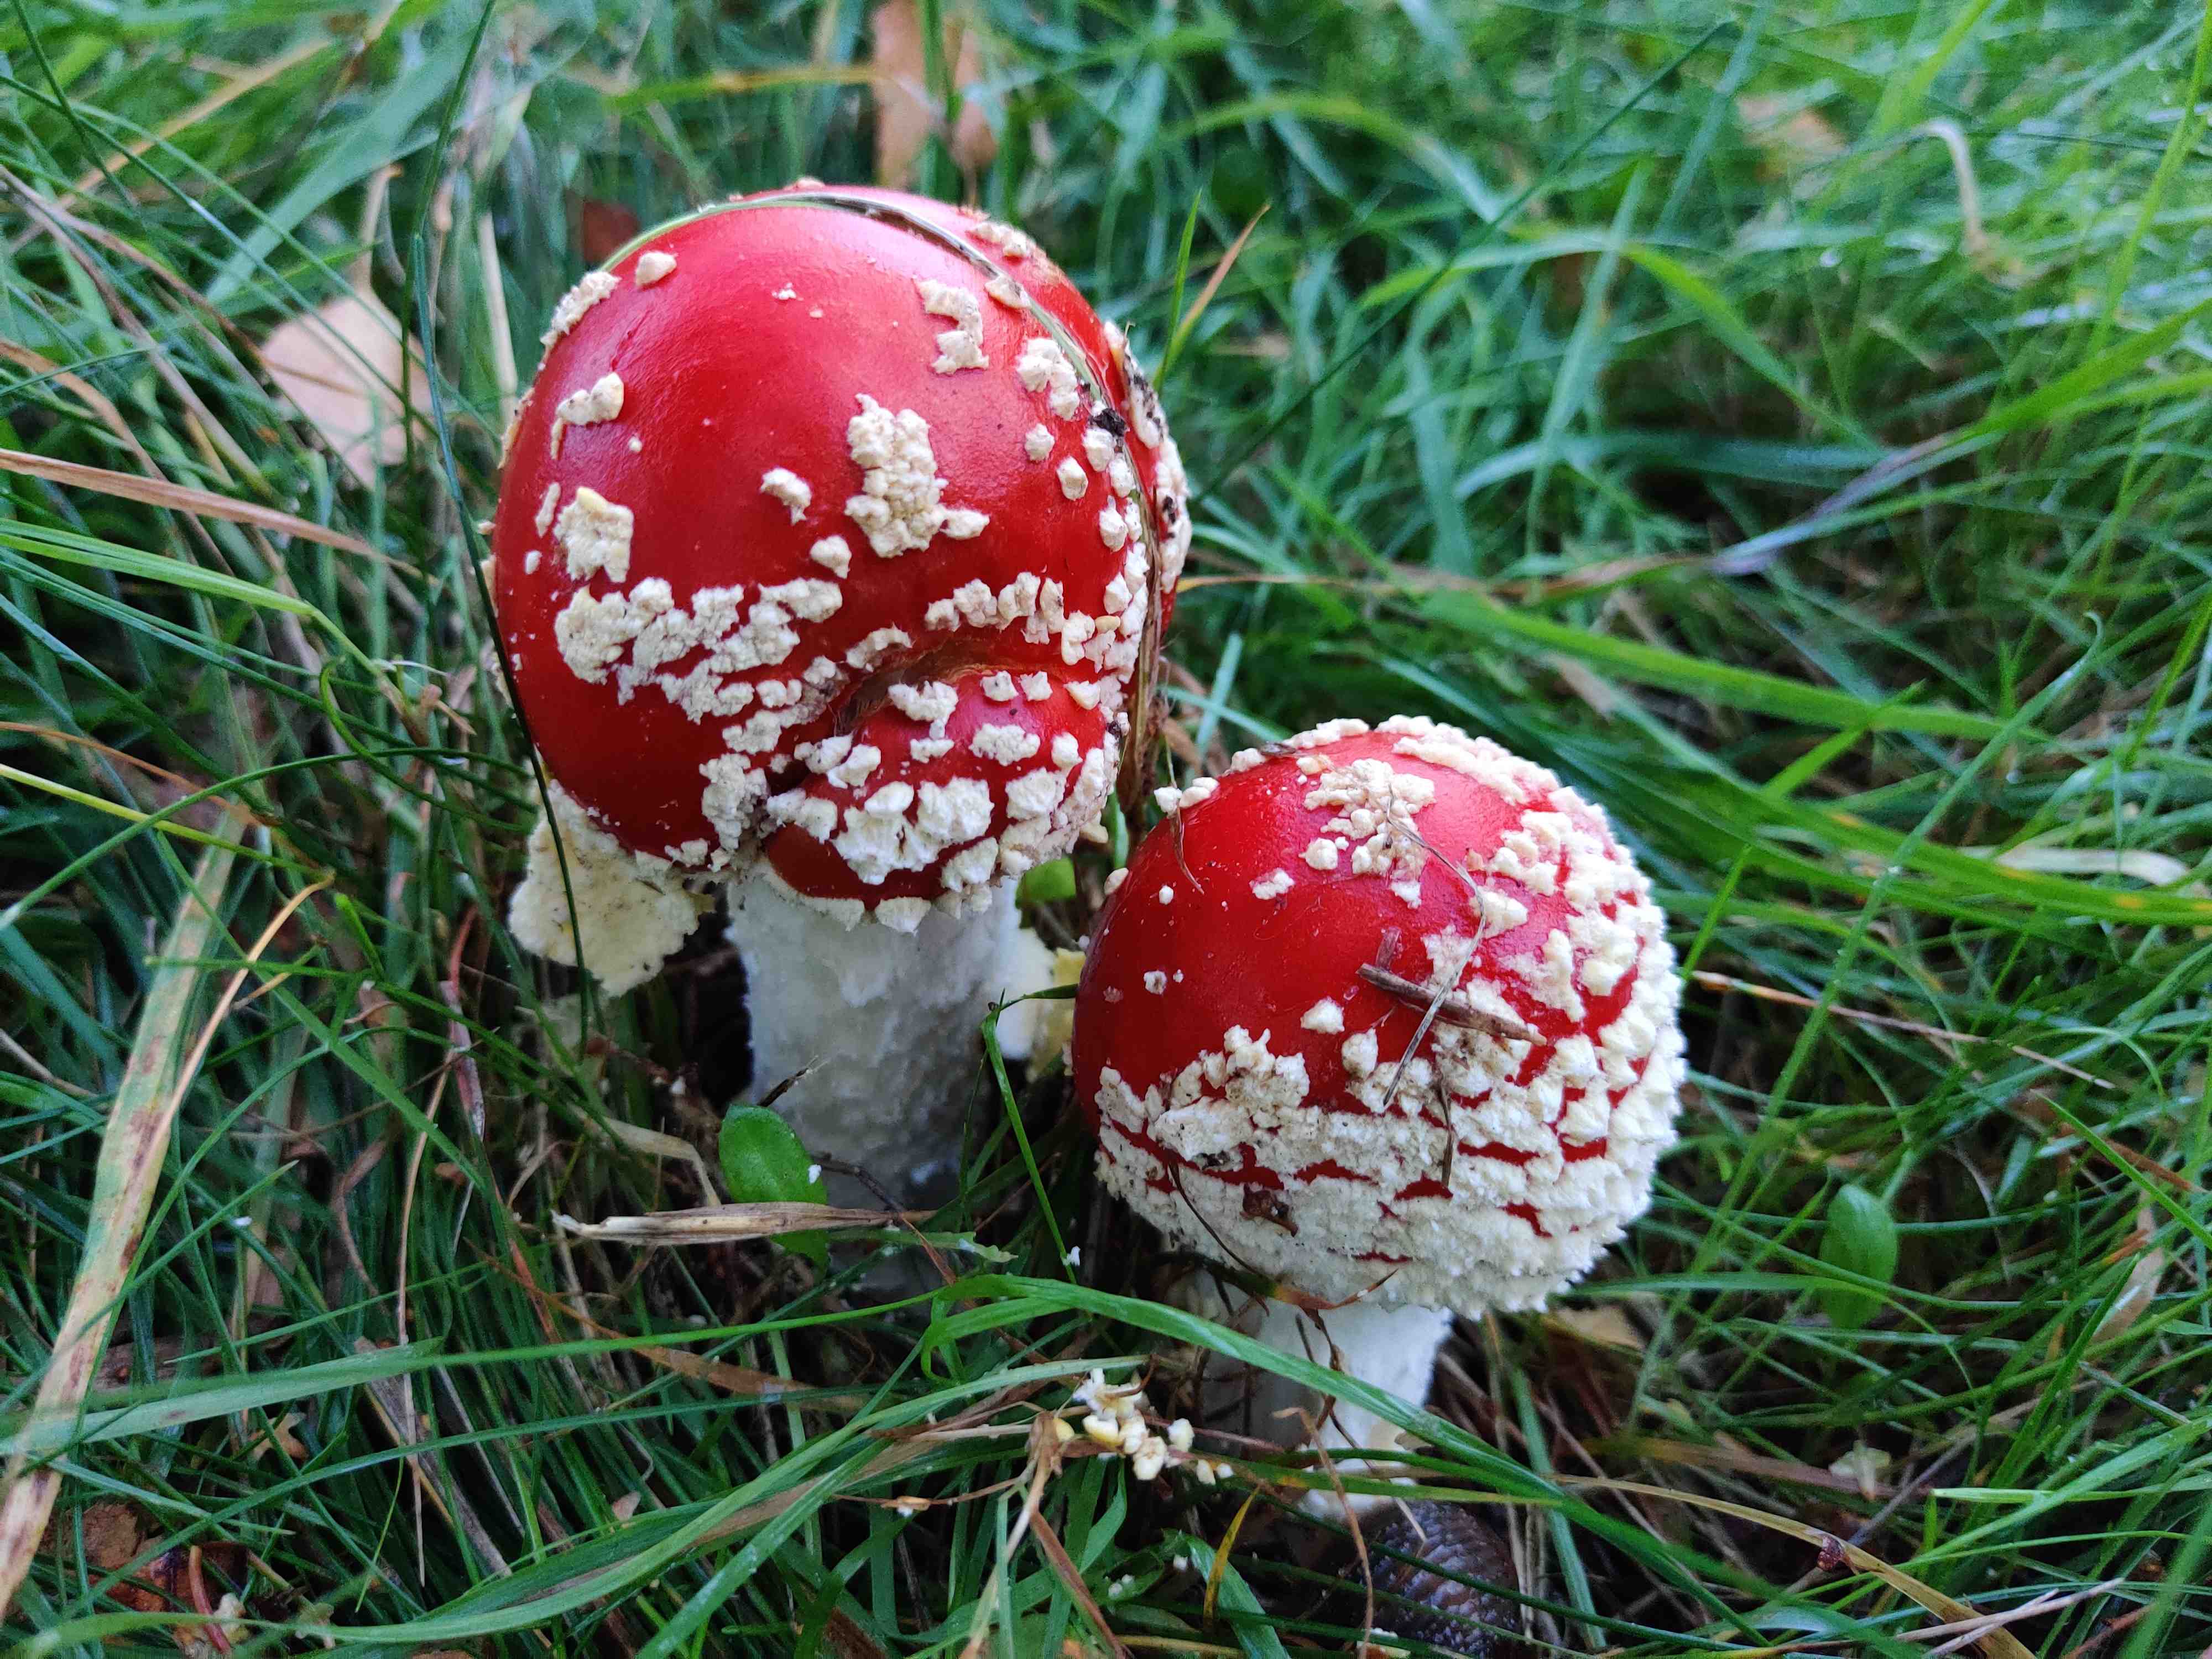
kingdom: Fungi
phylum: Basidiomycota
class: Agaricomycetes
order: Agaricales
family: Amanitaceae
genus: Amanita
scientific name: Amanita muscaria
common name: rød fluesvamp
